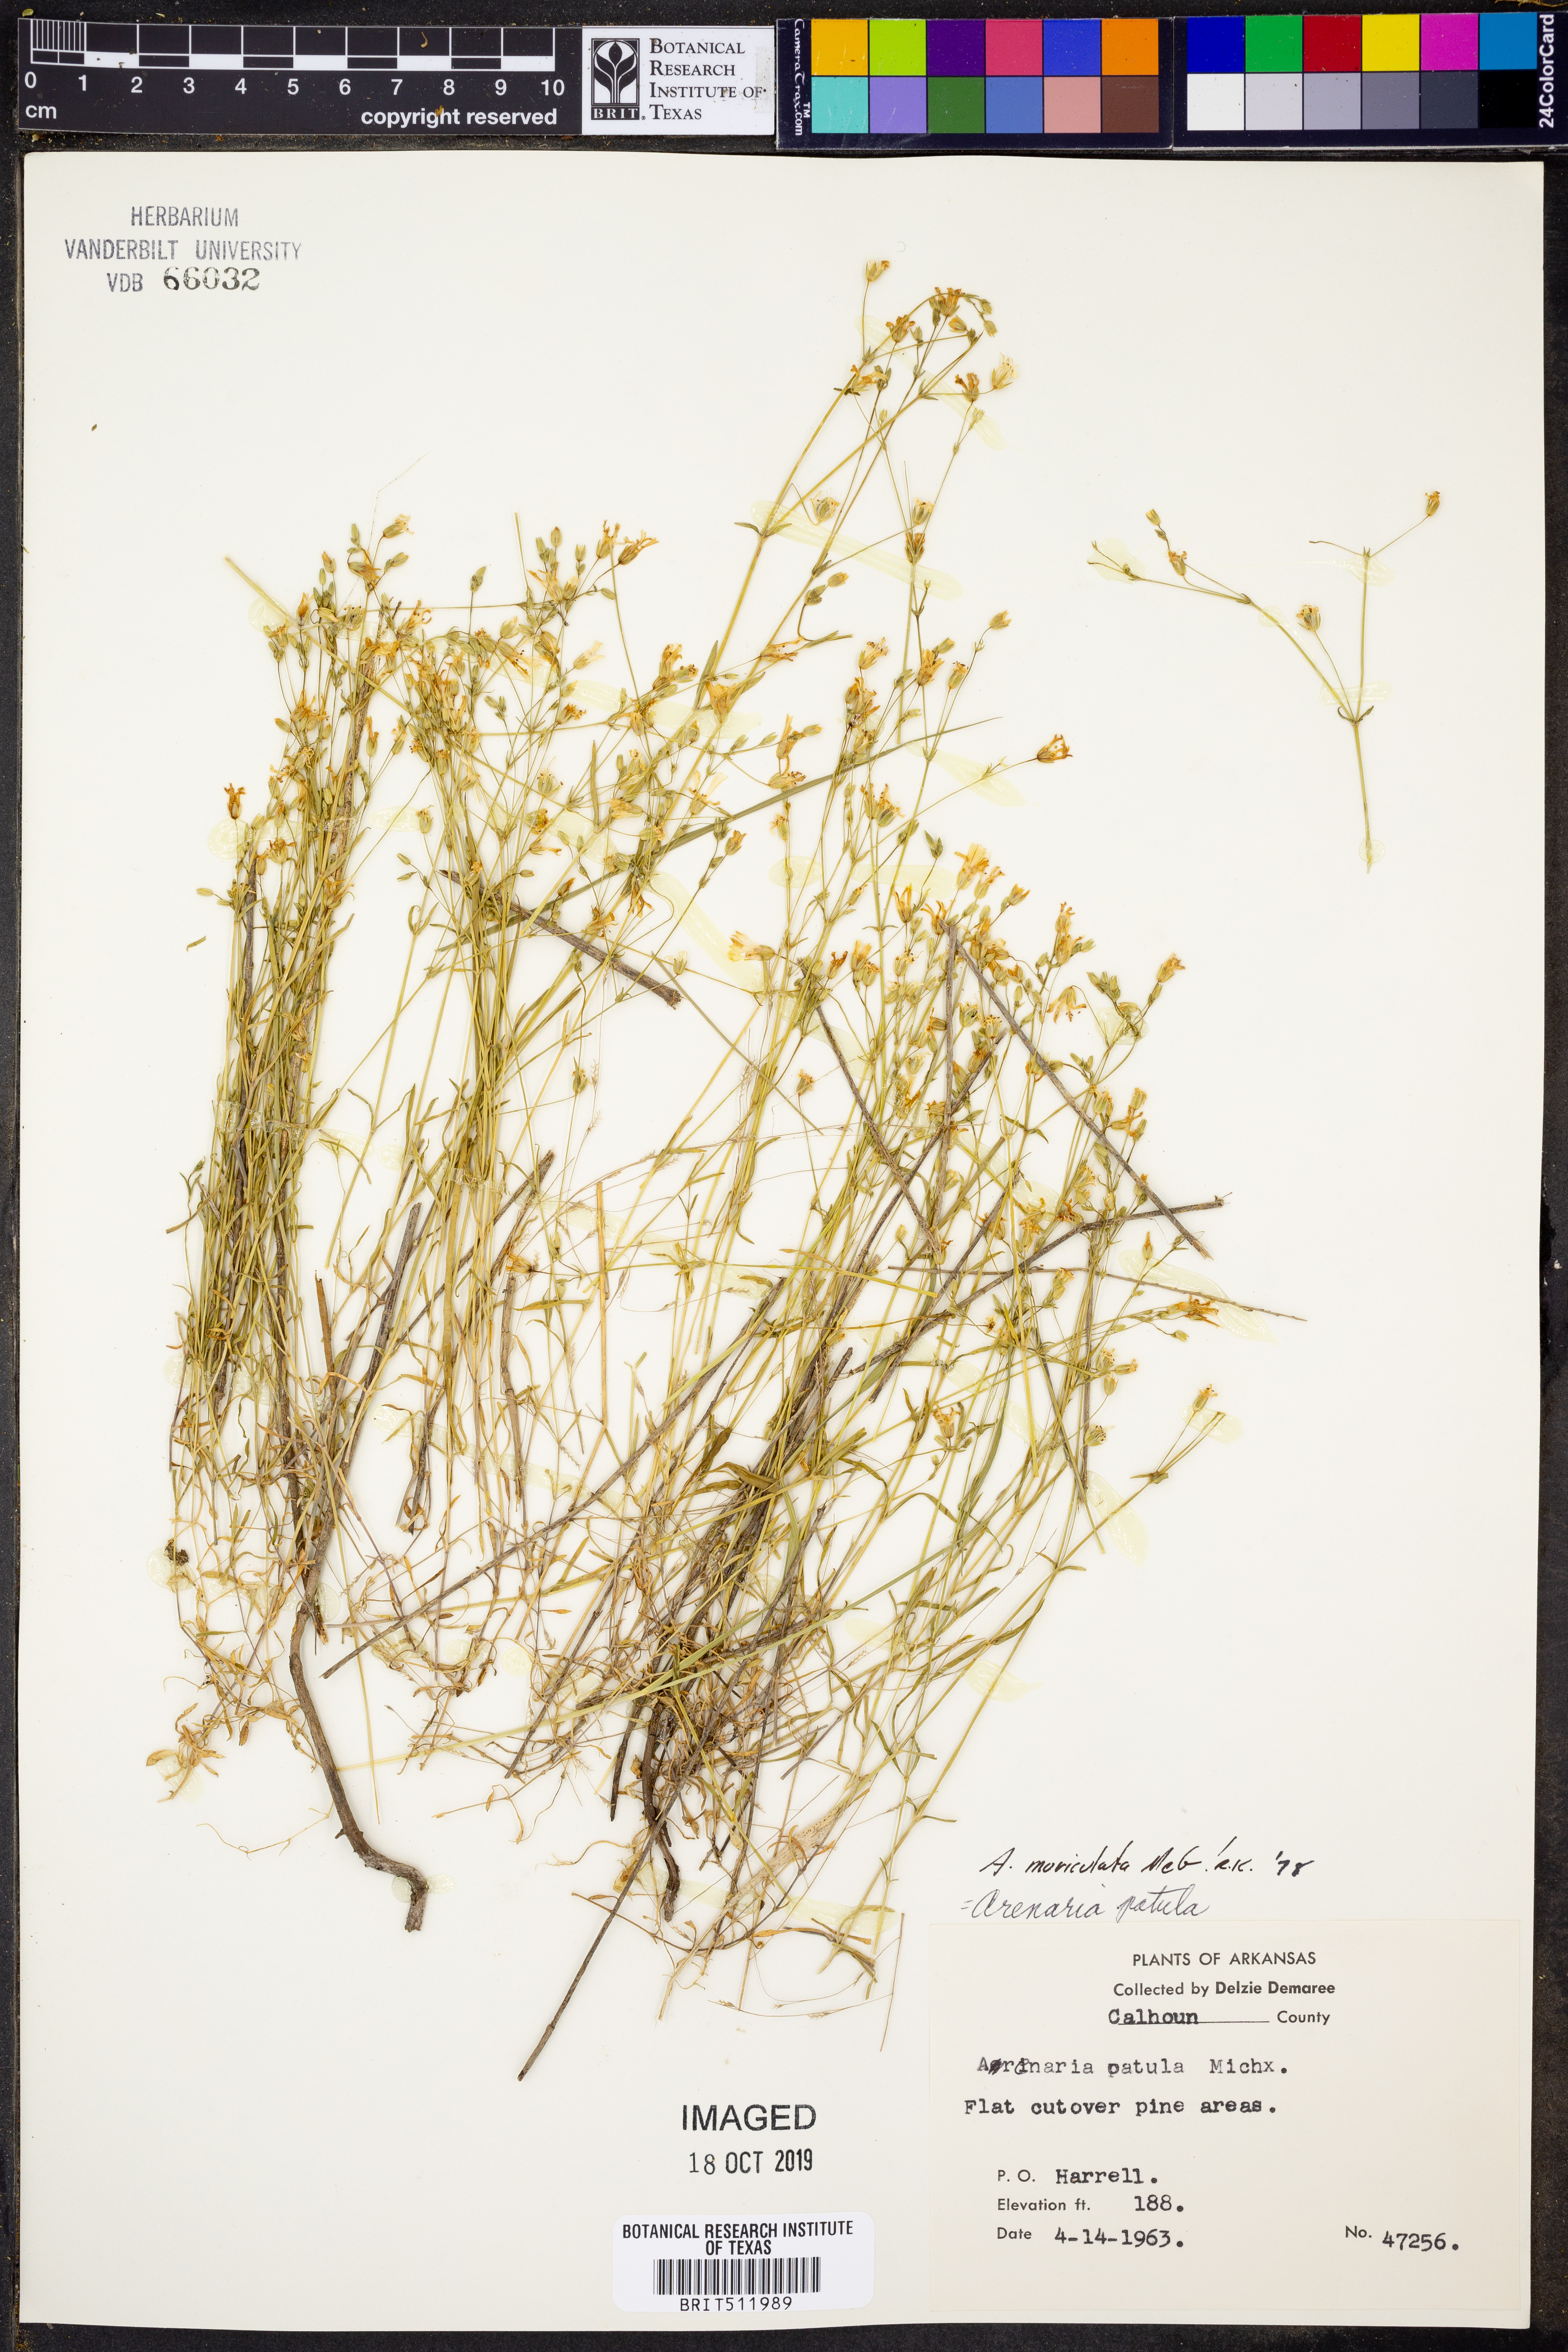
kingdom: Plantae
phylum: Tracheophyta
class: Magnoliopsida
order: Caryophyllales
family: Caryophyllaceae
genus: Mononeuria
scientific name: Mononeuria muscorum
